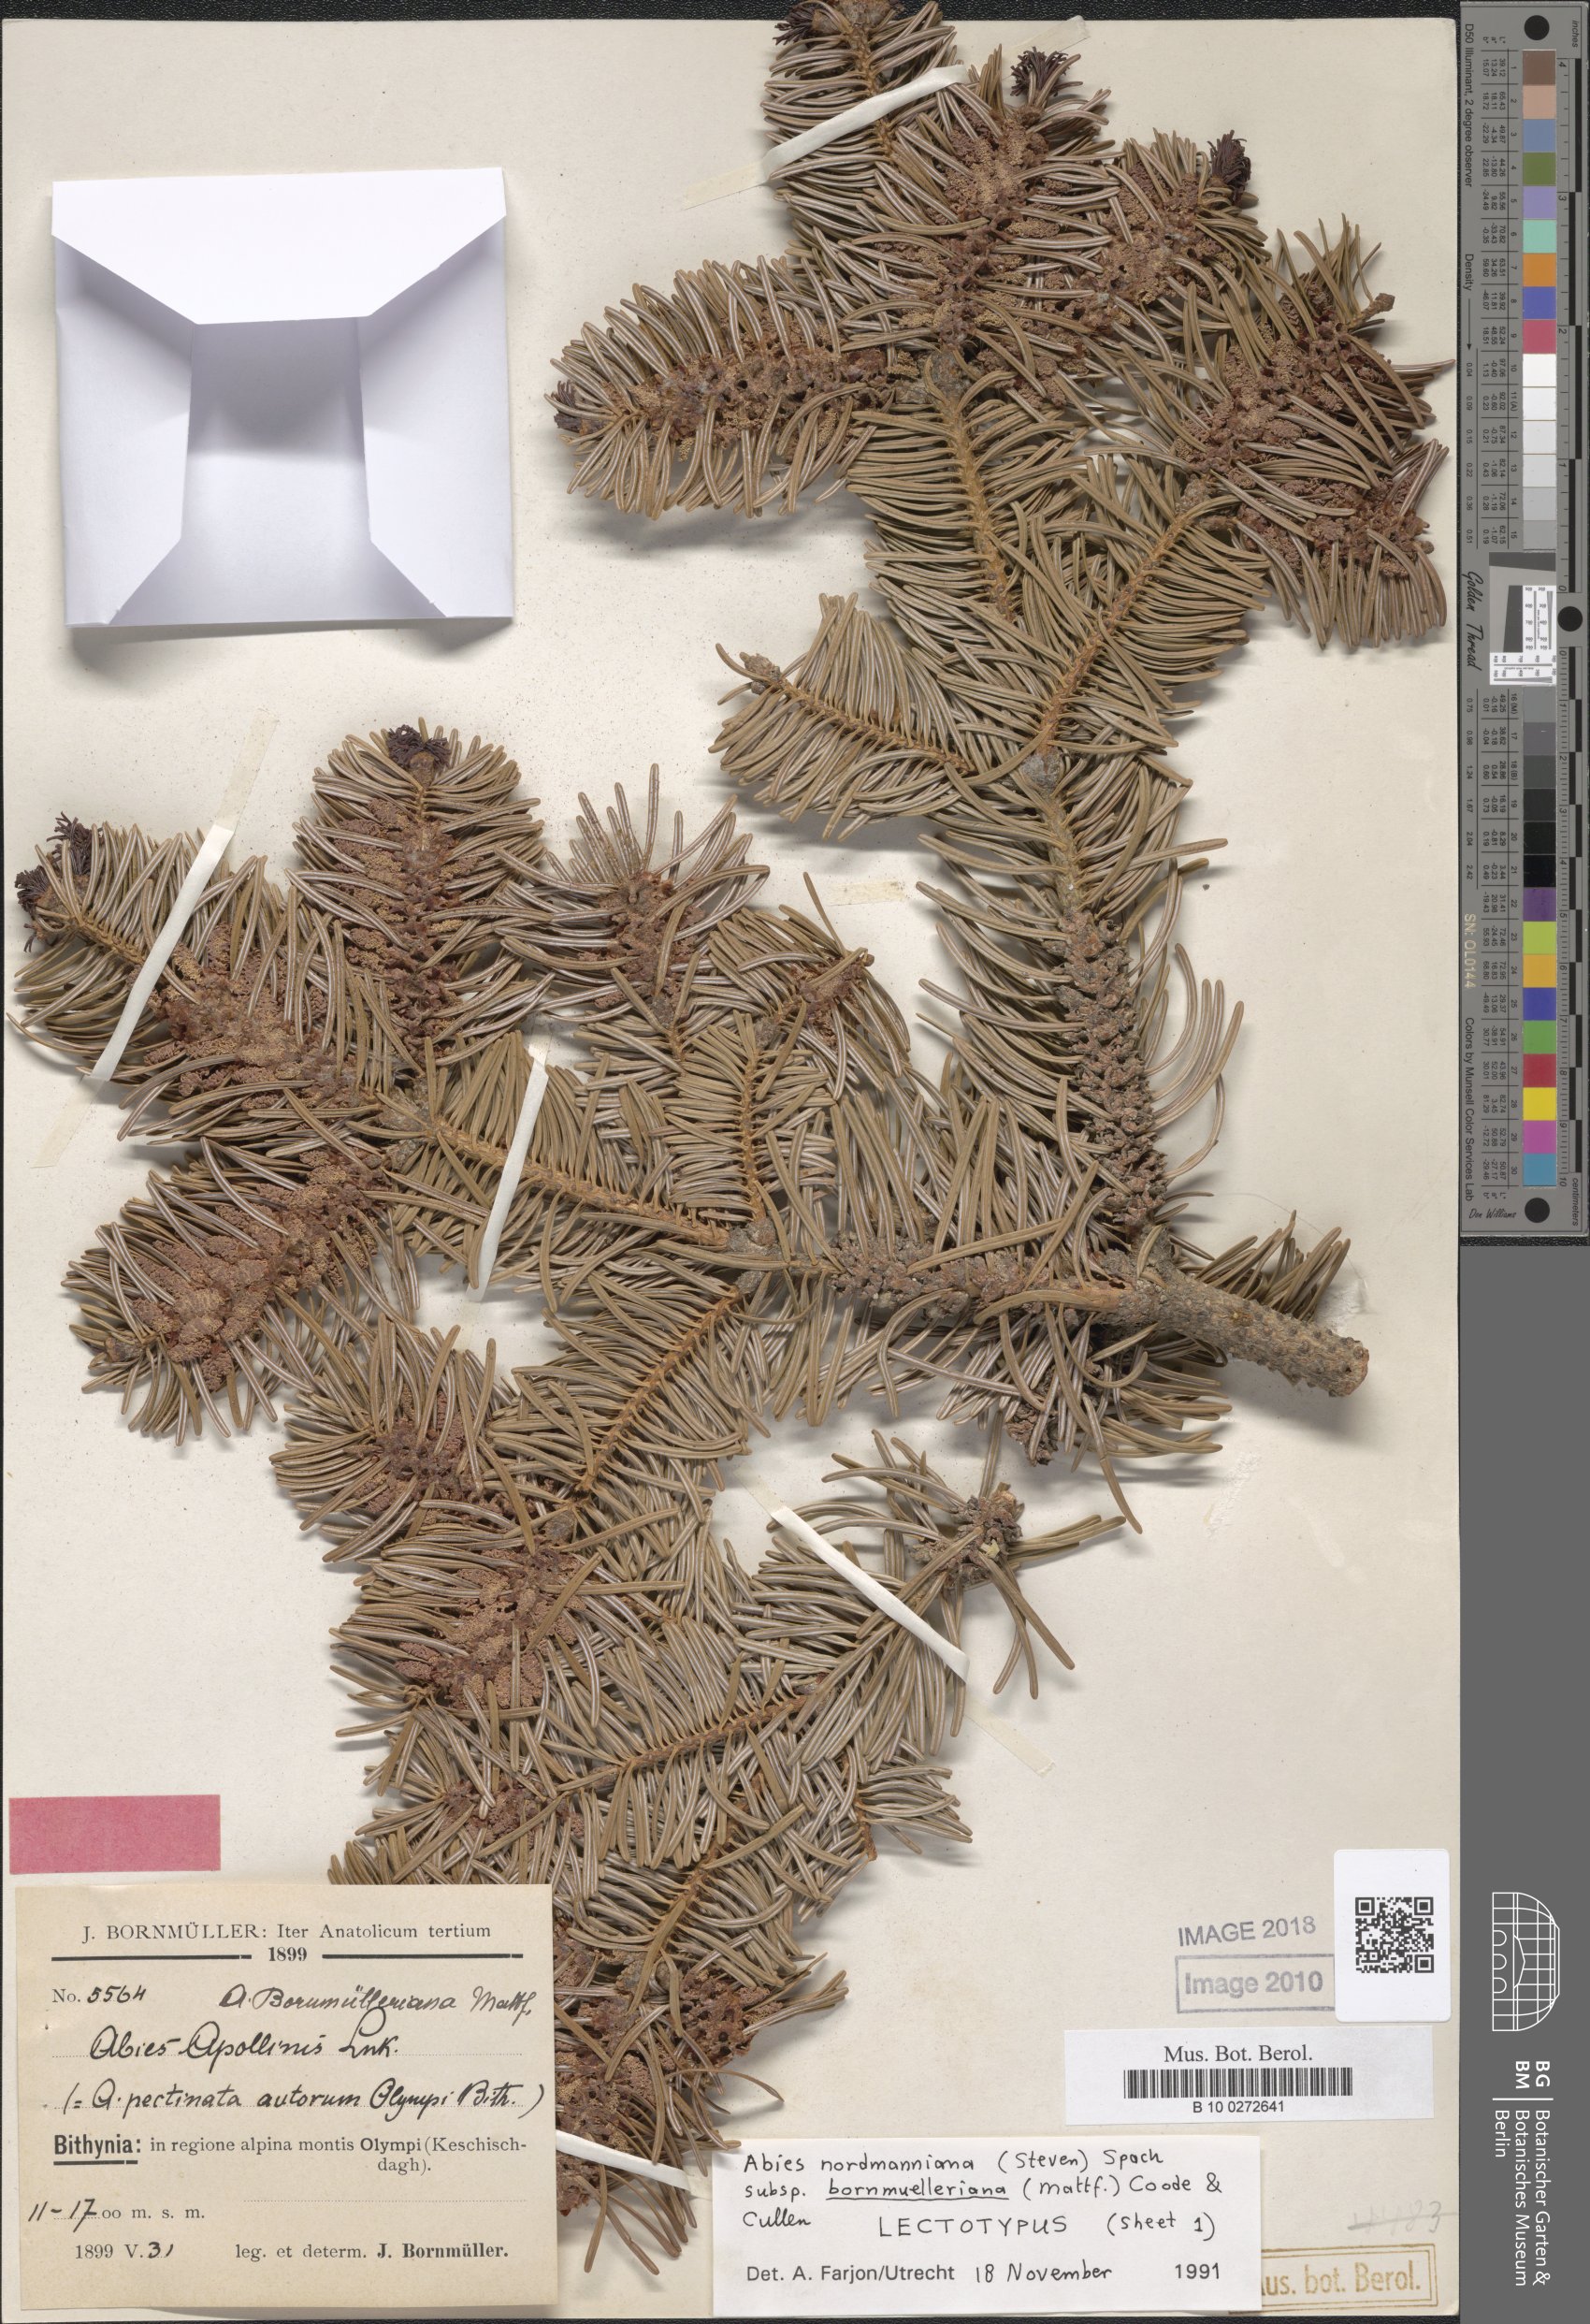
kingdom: Plantae
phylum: Tracheophyta
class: Pinopsida
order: Pinales
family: Pinaceae
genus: Abies
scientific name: Abies nordmanniana
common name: Caucasian fir
